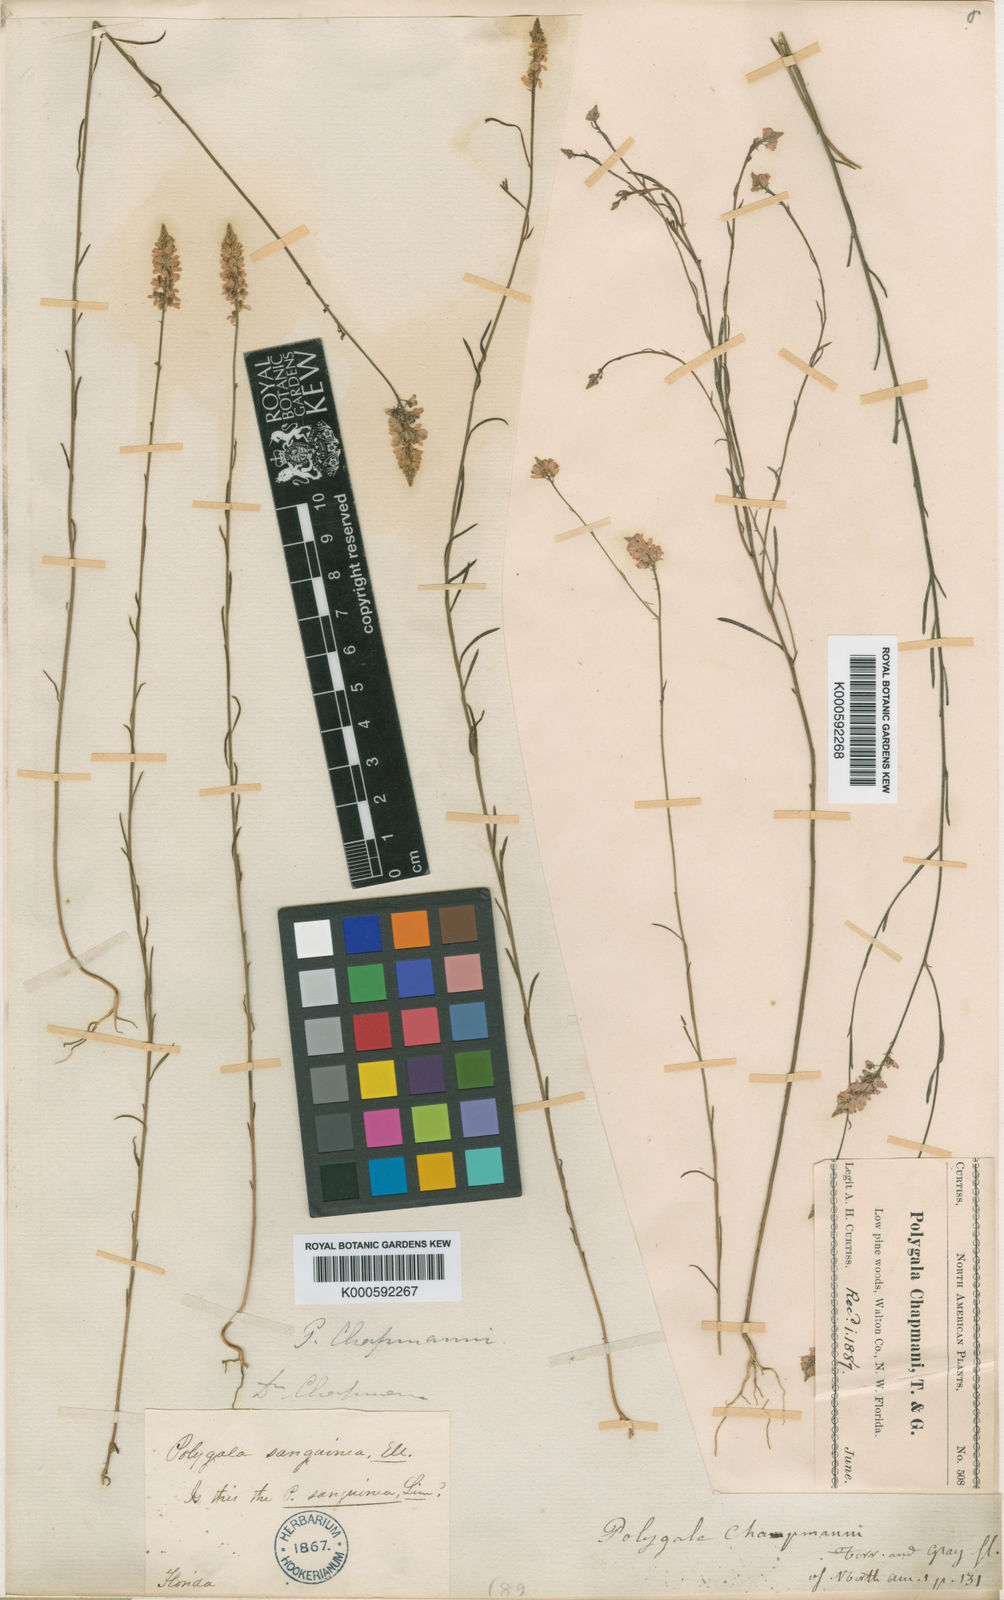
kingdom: Plantae
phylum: Tracheophyta
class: Magnoliopsida
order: Fabales
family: Polygalaceae
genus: Polygala
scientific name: Polygala chapmanii
